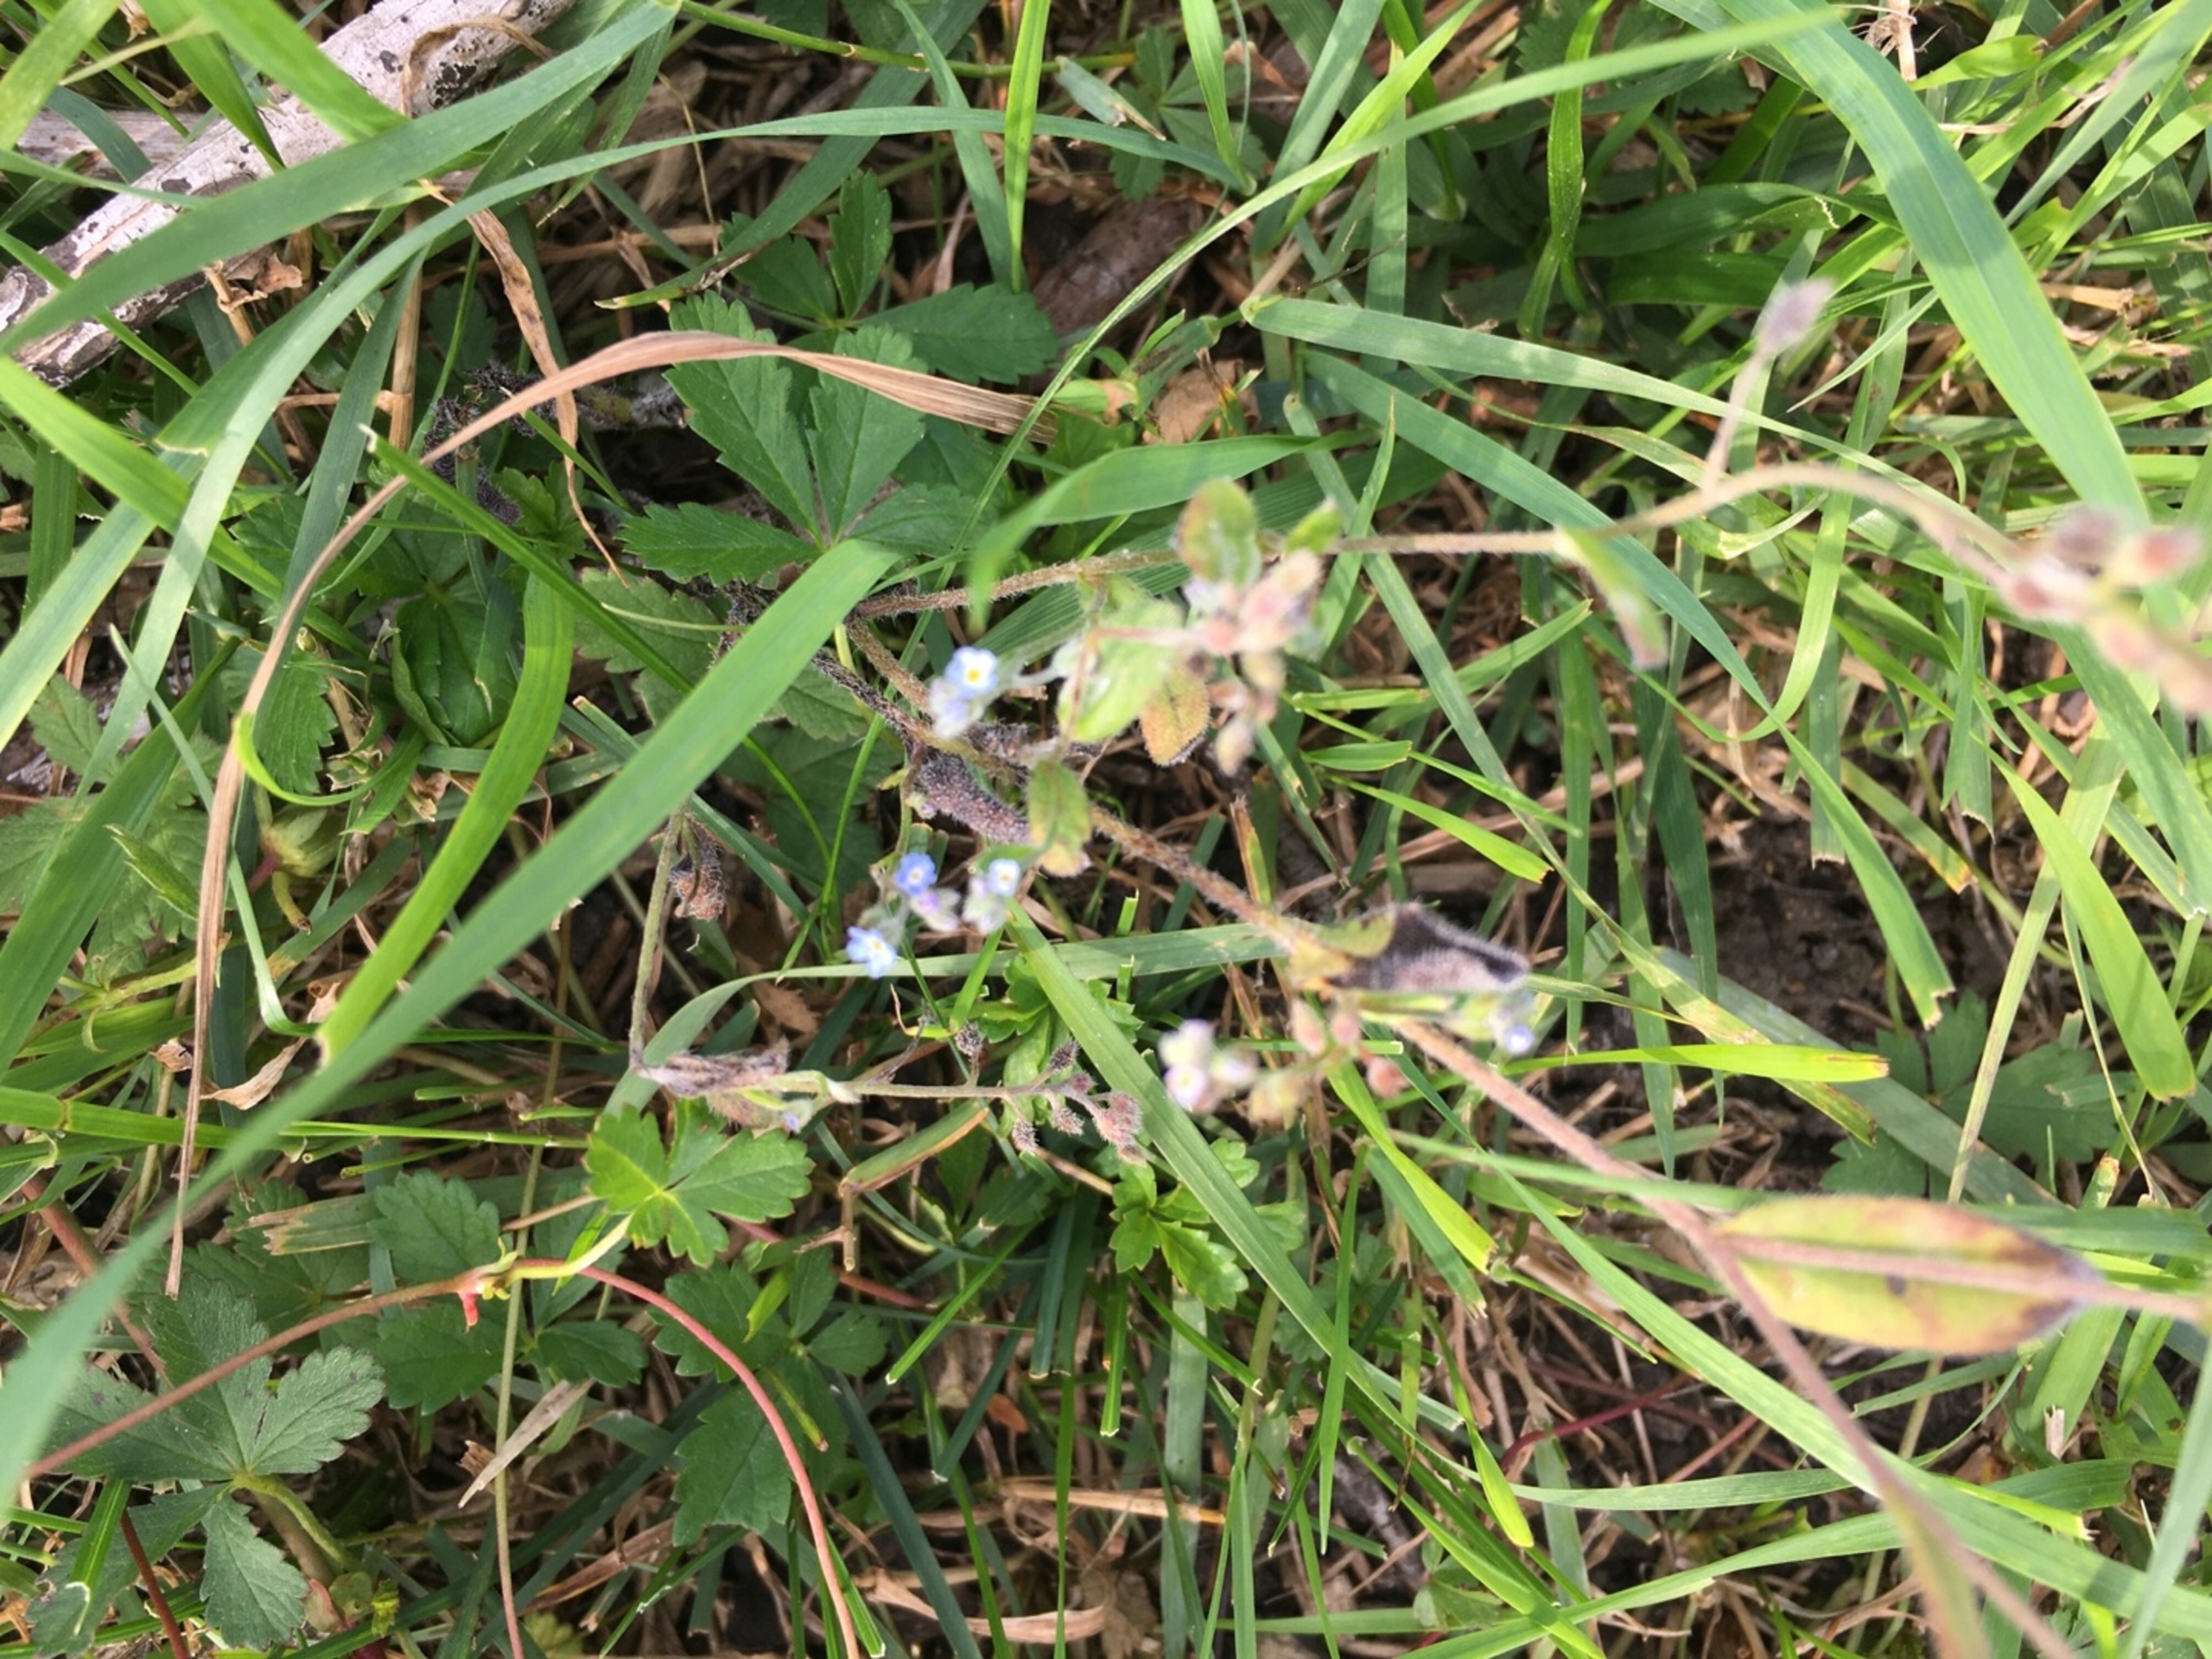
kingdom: Plantae
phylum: Tracheophyta
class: Magnoliopsida
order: Boraginales
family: Boraginaceae
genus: Myosotis
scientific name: Myosotis ramosissima
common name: Bakke-forglemmigej
